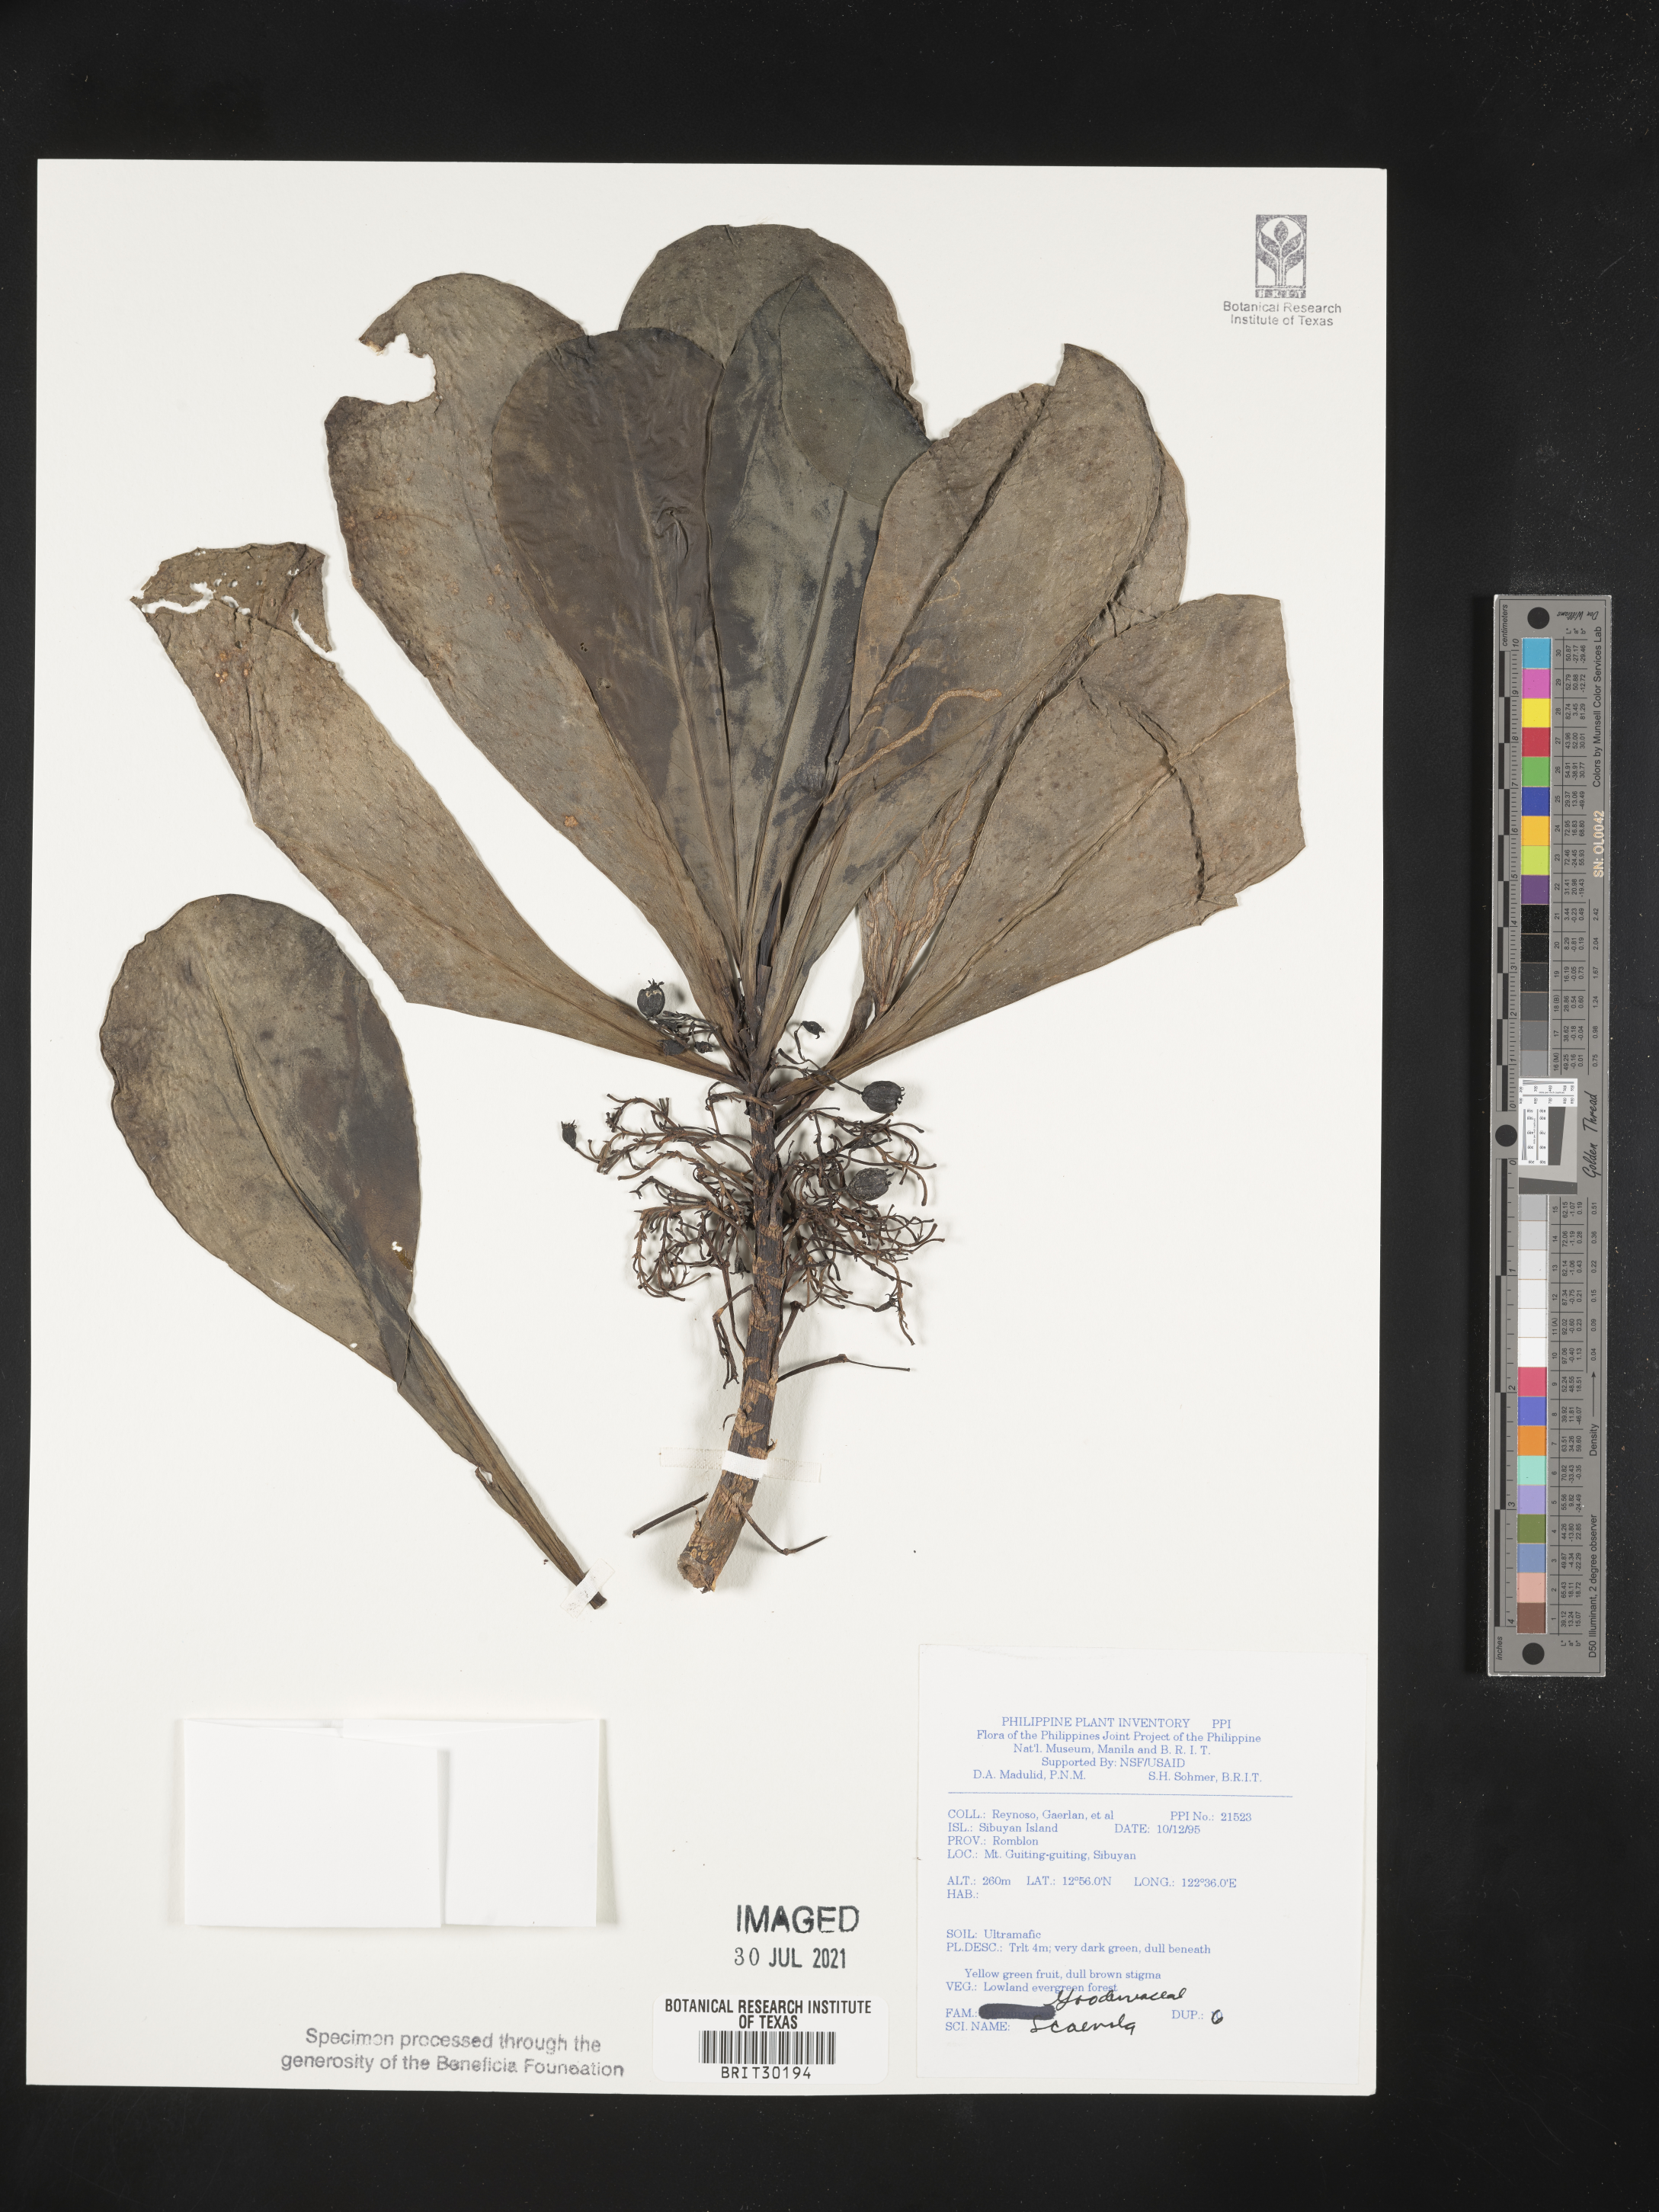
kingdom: Plantae
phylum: Tracheophyta
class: Magnoliopsida
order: Asterales
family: Goodeniaceae
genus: Scaevola
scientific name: Scaevola
